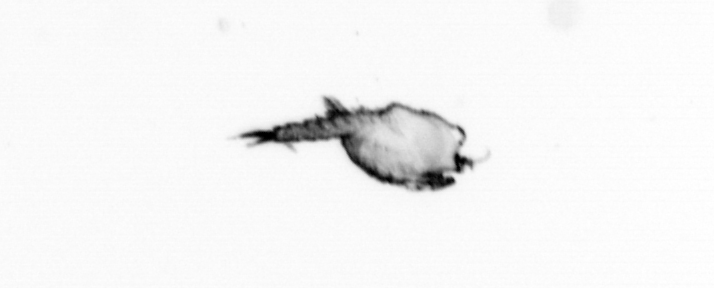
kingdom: Animalia
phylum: Annelida
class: Polychaeta
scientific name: Polychaeta
